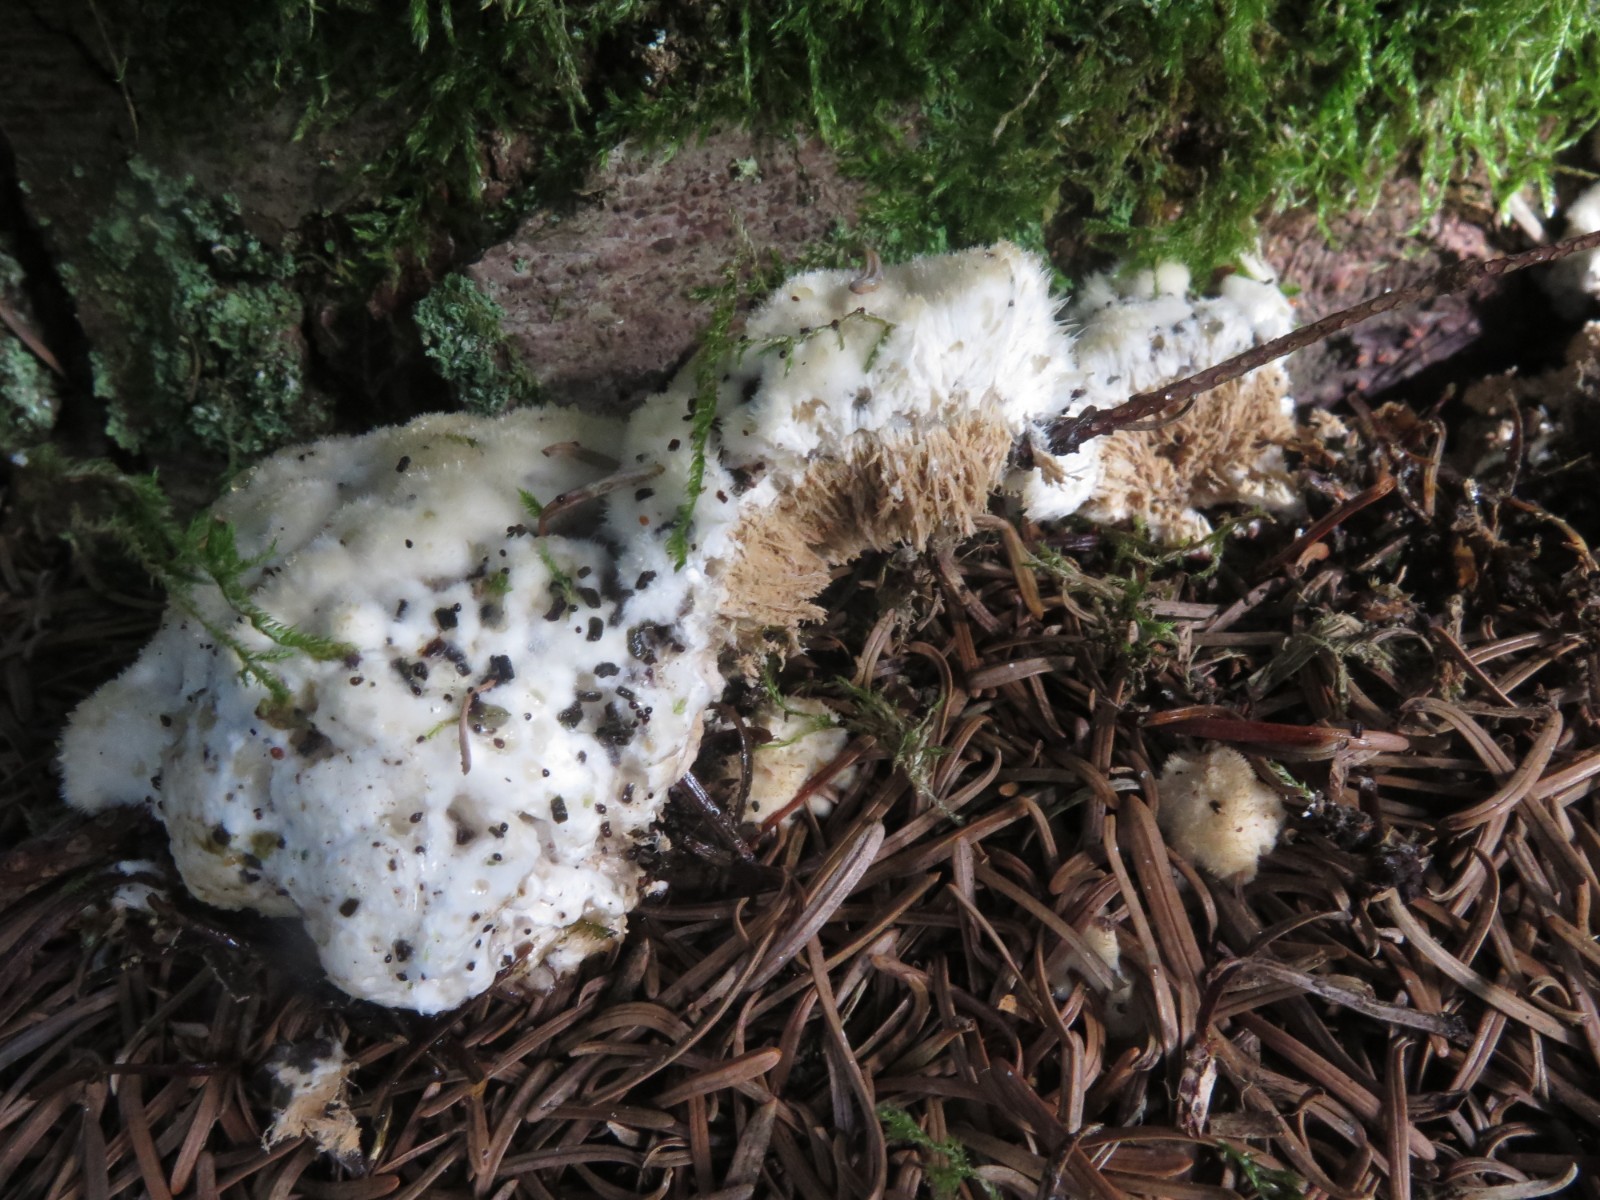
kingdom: Fungi
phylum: Basidiomycota
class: Agaricomycetes
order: Polyporales
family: Dacryobolaceae
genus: Postia
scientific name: Postia ptychogaster
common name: støvende kødporesvamp
